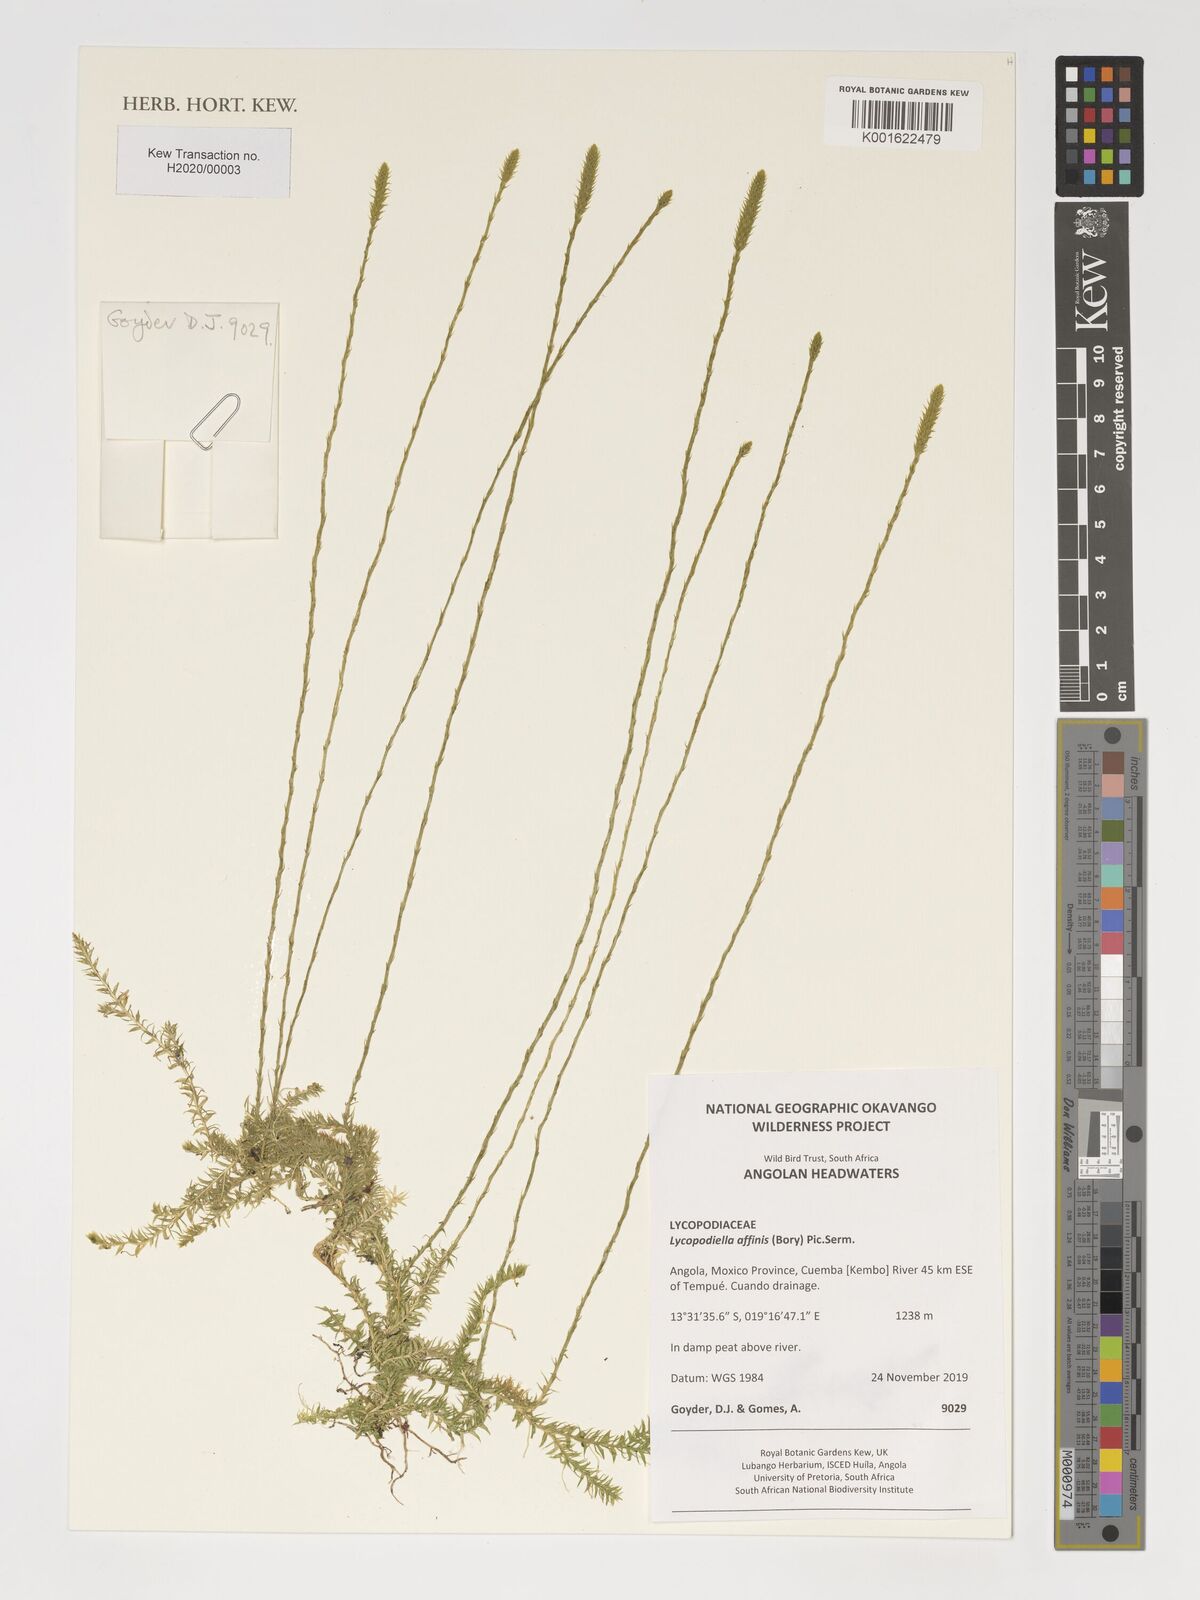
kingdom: Plantae
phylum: Tracheophyta
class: Lycopodiopsida
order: Lycopodiales
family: Lycopodiaceae
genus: Pseudolycopodiella
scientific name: Pseudolycopodiella affinis
